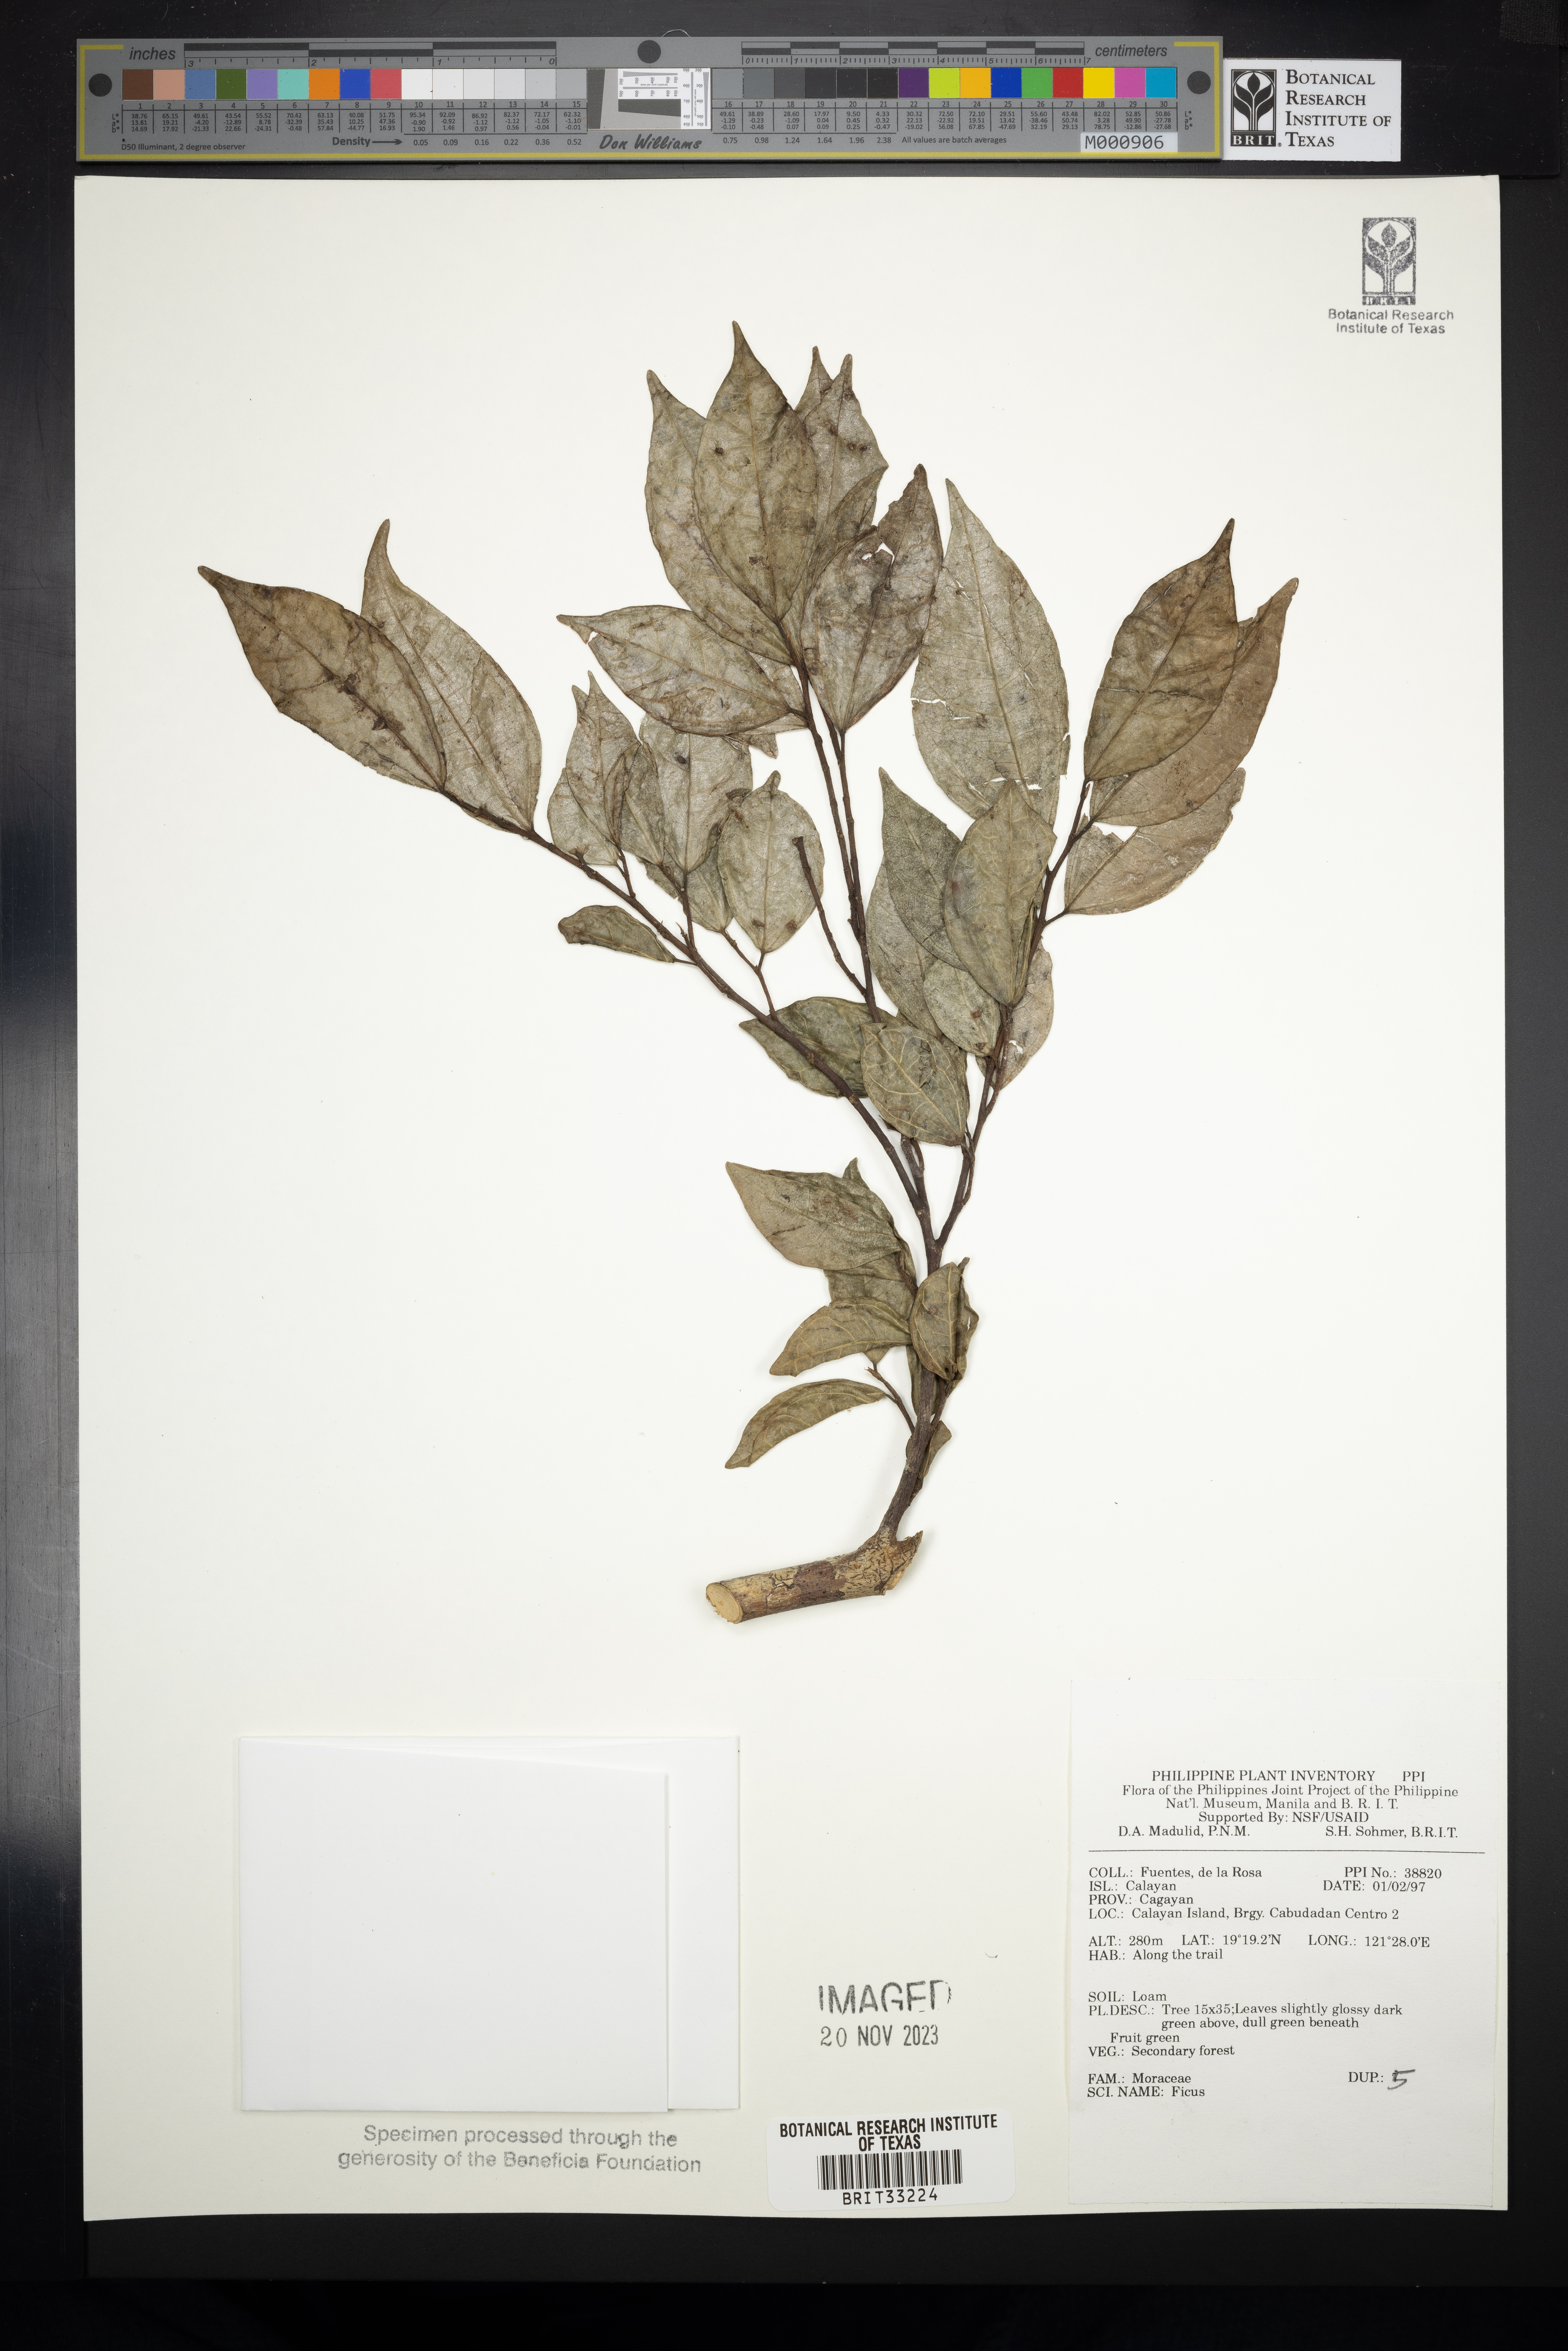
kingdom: Plantae
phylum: Tracheophyta
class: Magnoliopsida
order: Rosales
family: Moraceae
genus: Ficus
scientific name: Ficus
